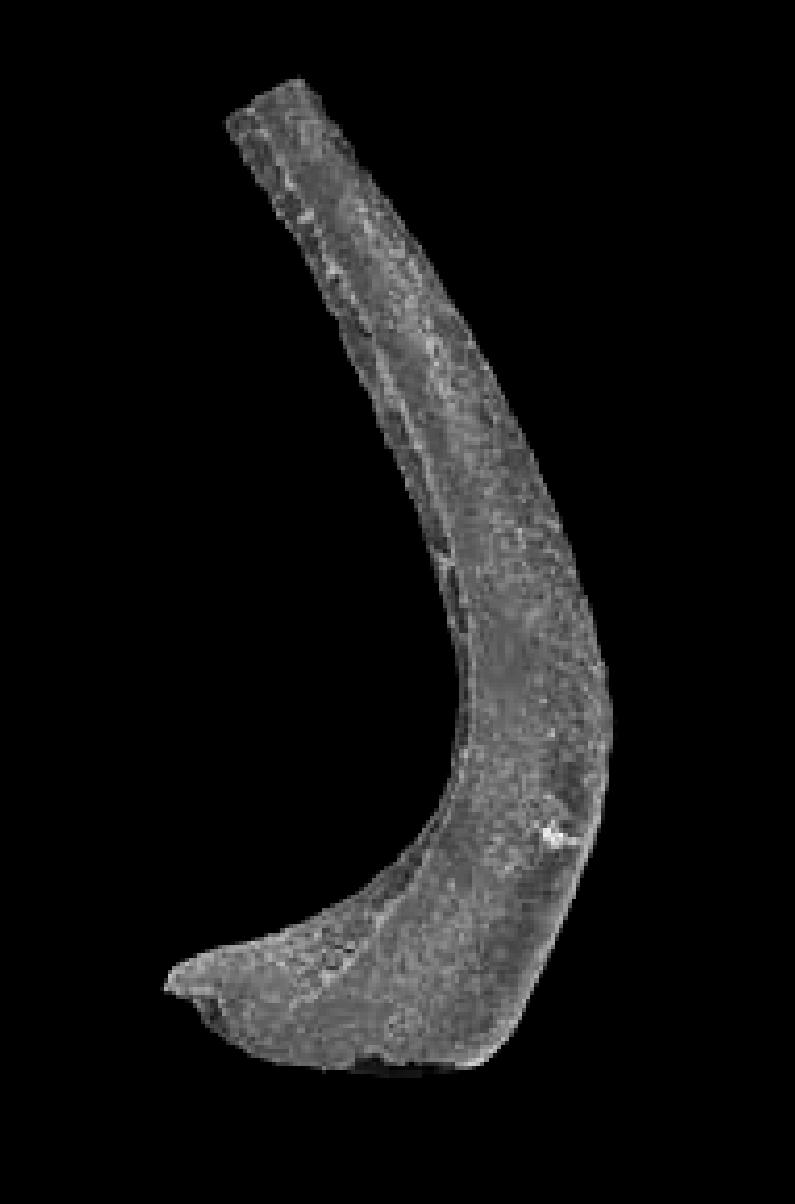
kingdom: Animalia
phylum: Chordata
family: Protopanderodontidae
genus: Protopanderodus
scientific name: Protopanderodus Acontiodus rectus
